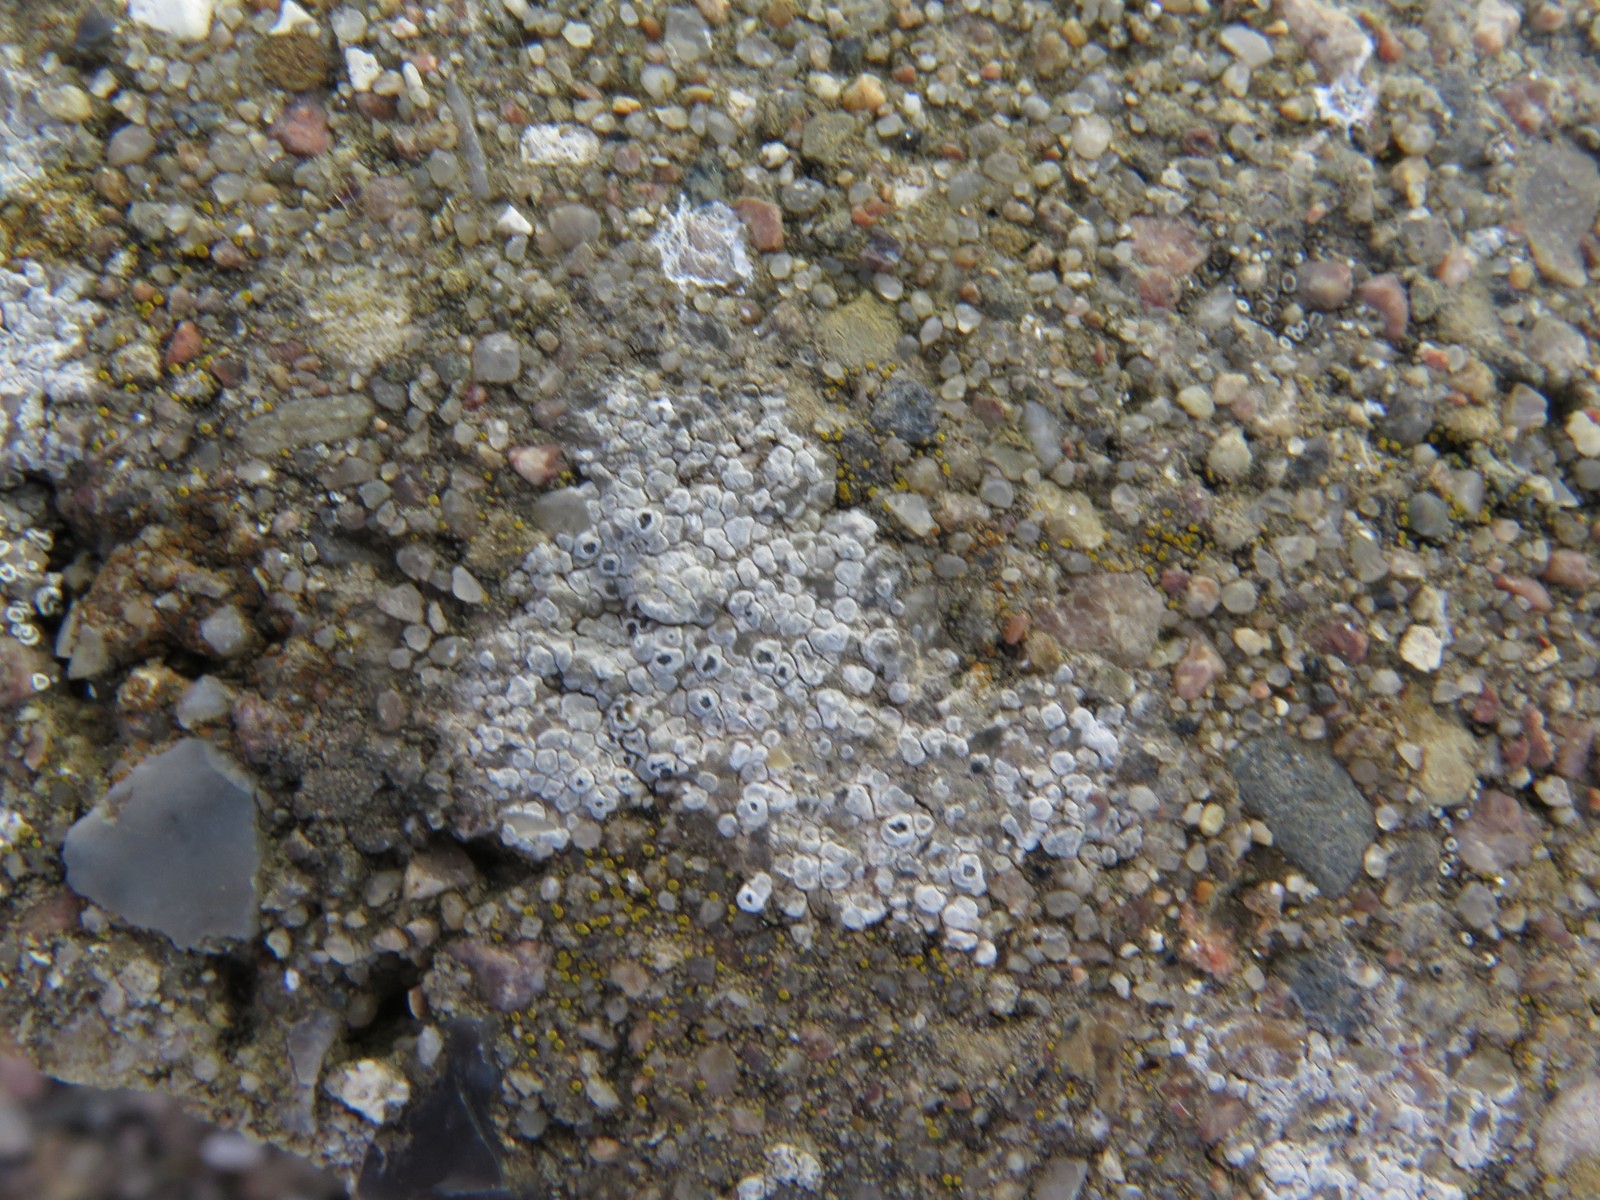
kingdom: Fungi
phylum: Ascomycota
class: Lecanoromycetes
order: Pertusariales
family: Megasporaceae
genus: Circinaria
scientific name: Circinaria contorta
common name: indviklet hulskivelav
